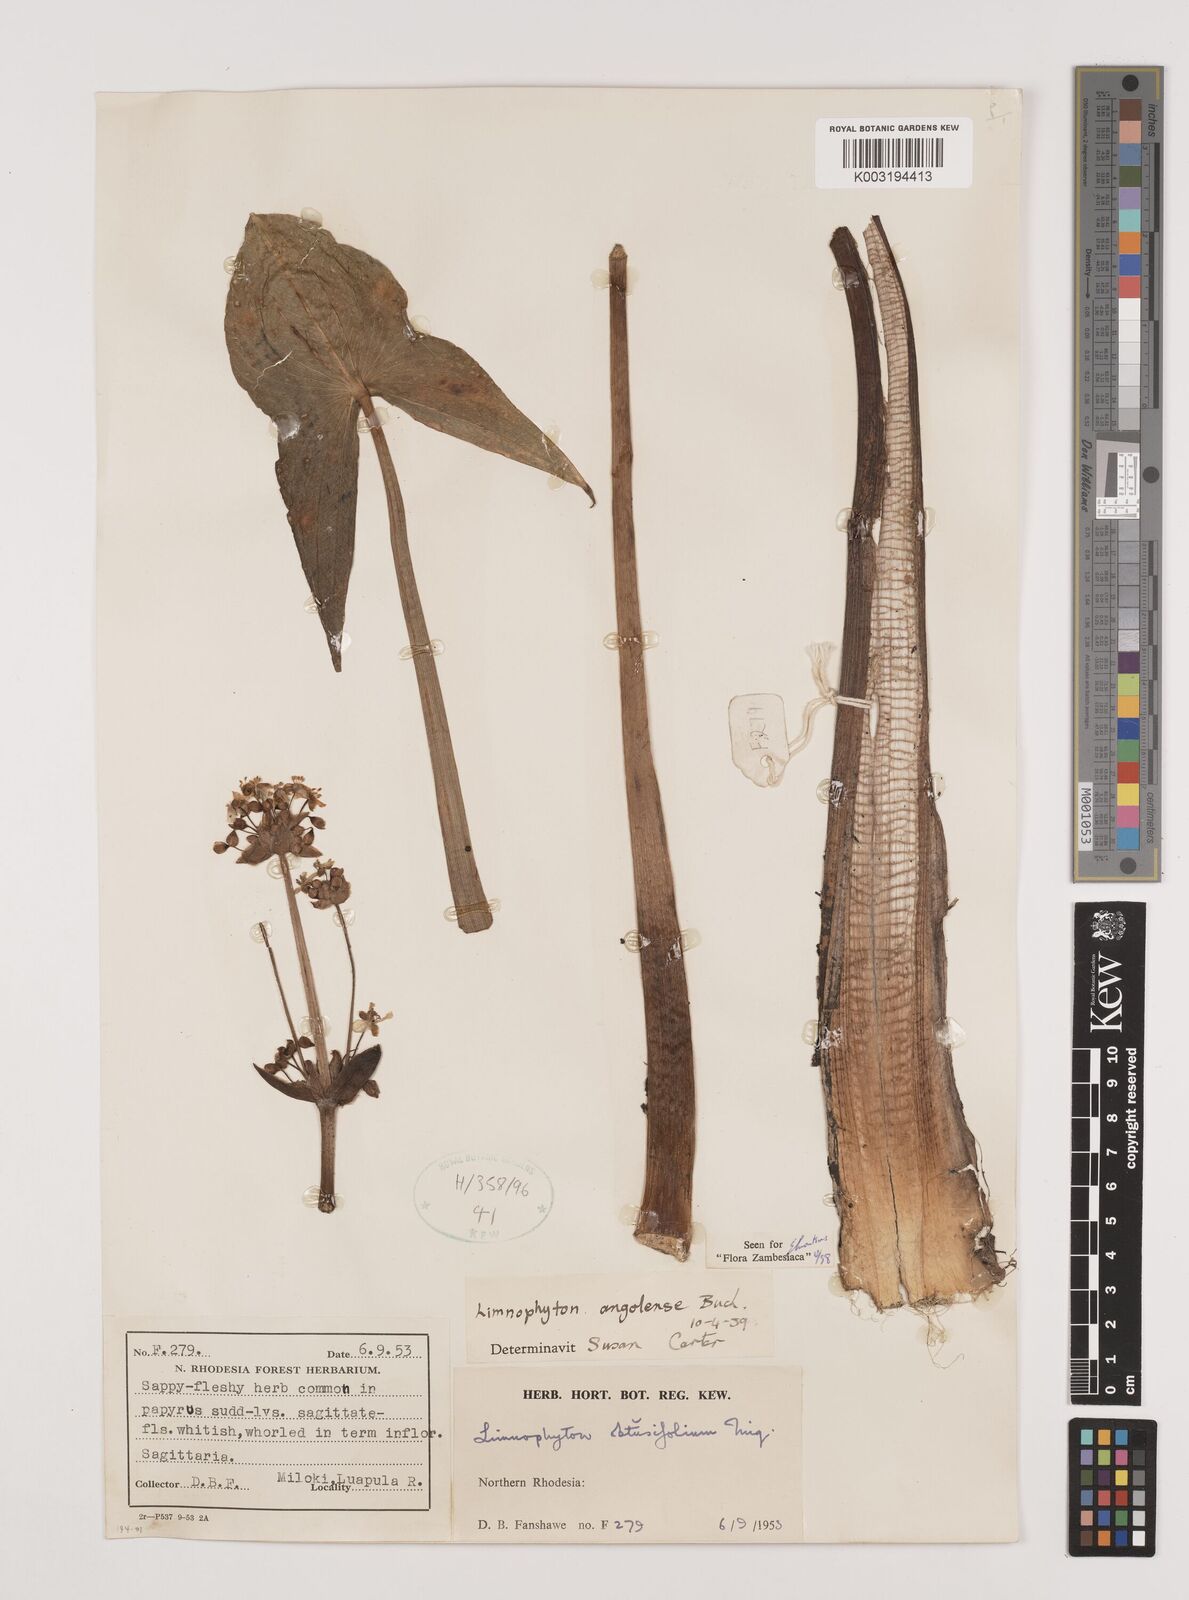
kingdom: Plantae
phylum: Tracheophyta
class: Liliopsida
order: Alismatales
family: Alismataceae
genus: Limnophyton
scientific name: Limnophyton angolense
